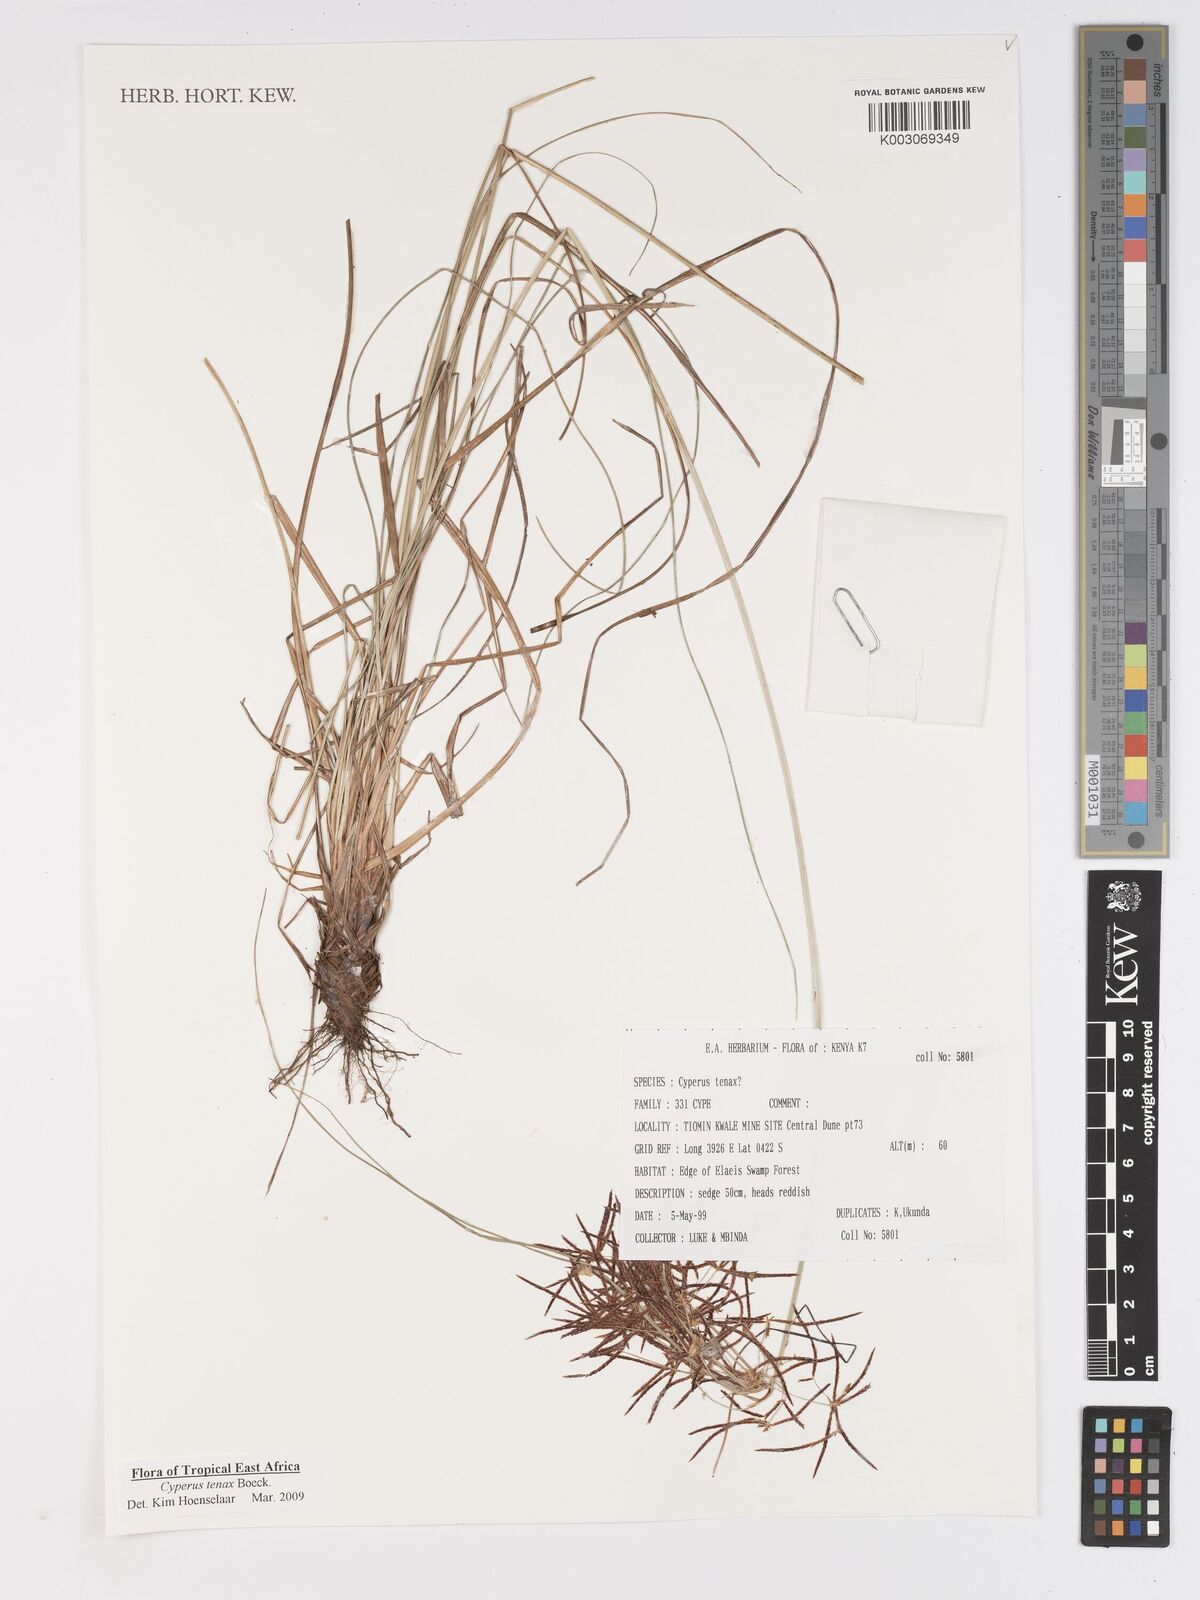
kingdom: Plantae
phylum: Tracheophyta
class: Liliopsida
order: Poales
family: Cyperaceae
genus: Cyperus
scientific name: Cyperus tenax
